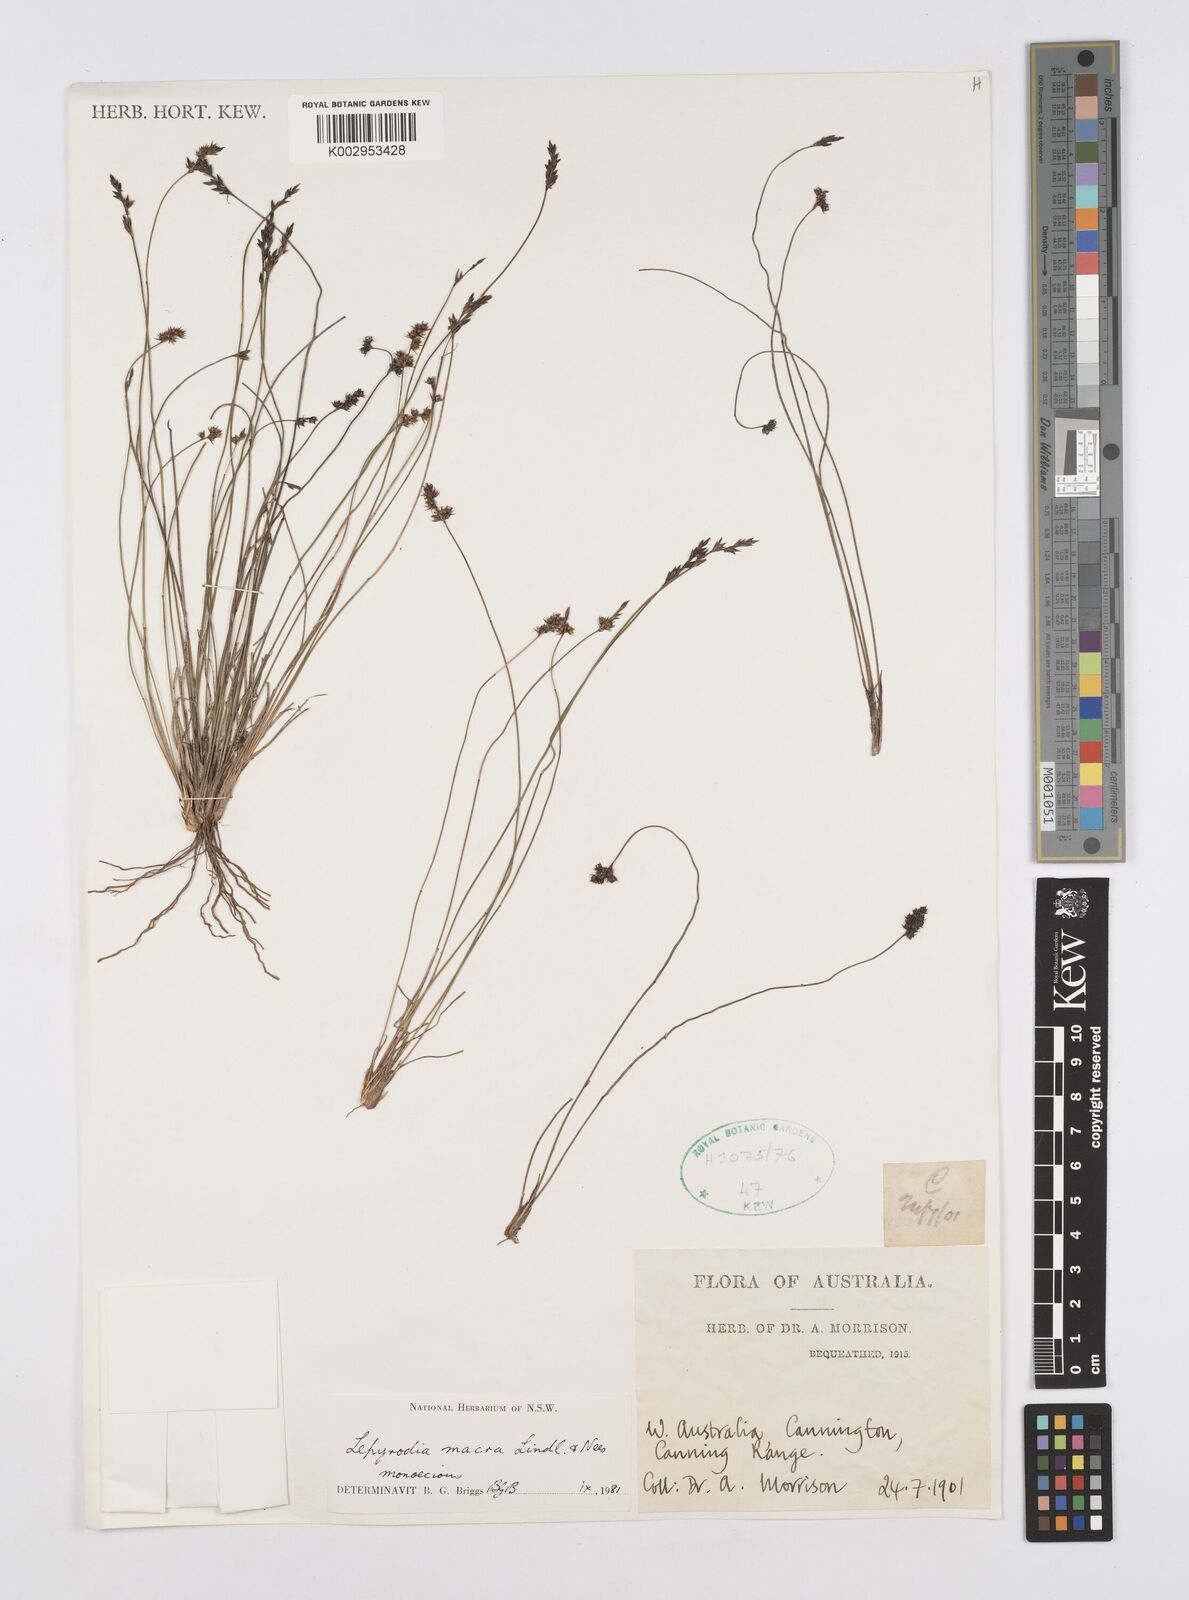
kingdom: Plantae
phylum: Tracheophyta
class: Liliopsida
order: Poales
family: Restionaceae
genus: Lepyrodia
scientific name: Lepyrodia macra
